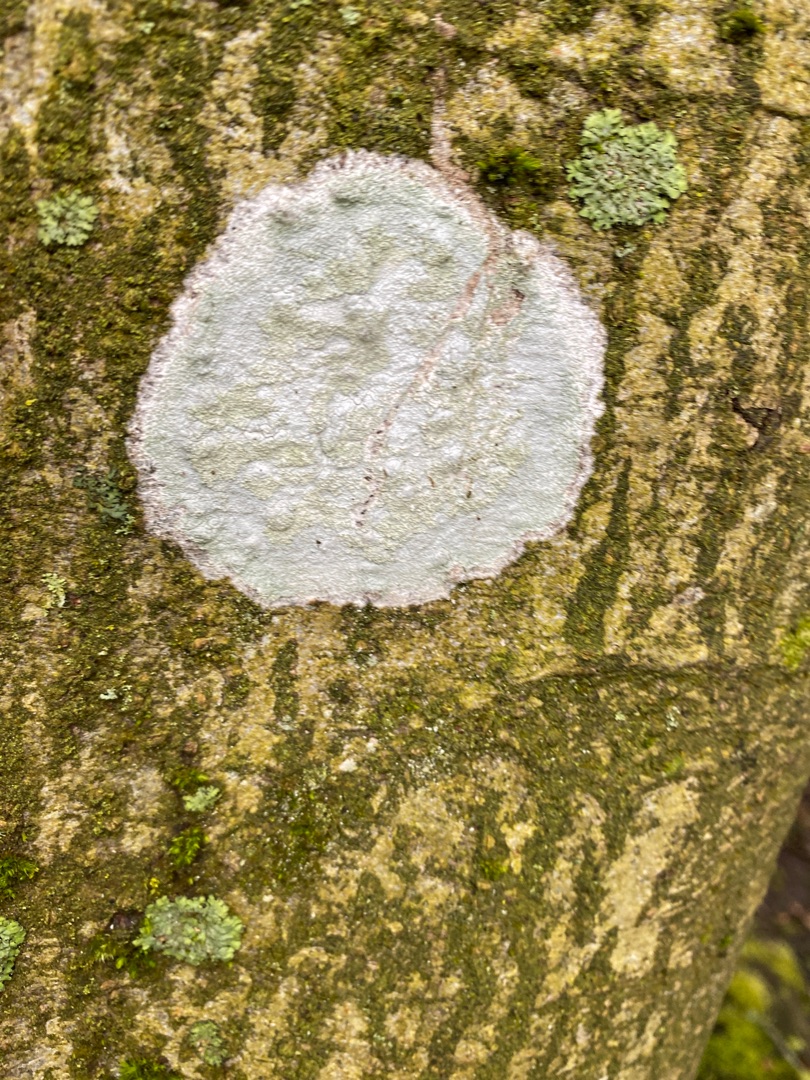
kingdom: Fungi
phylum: Ascomycota
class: Lecanoromycetes
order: Ostropales
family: Phlyctidaceae
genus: Phlyctis
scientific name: Phlyctis argena
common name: Almindelig sølvlav
